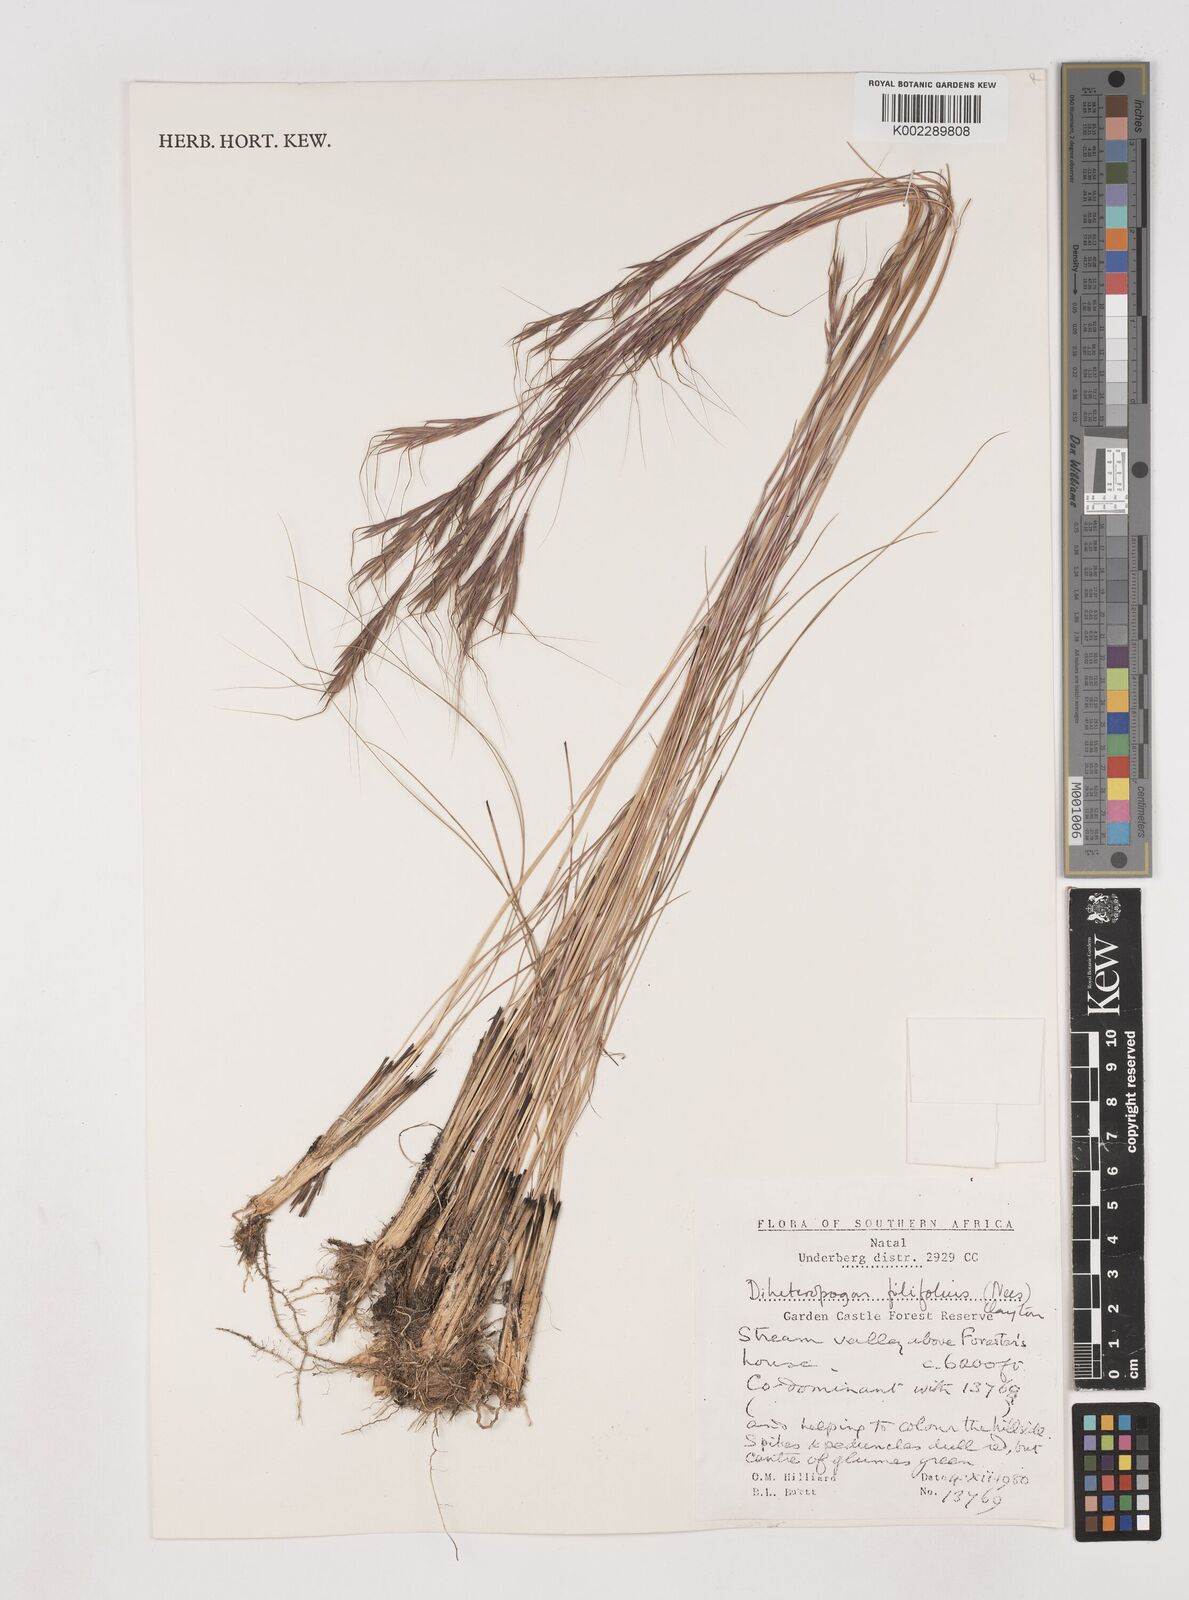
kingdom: Plantae
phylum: Tracheophyta
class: Liliopsida
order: Poales
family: Poaceae
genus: Diheteropogon
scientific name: Diheteropogon filifolius
